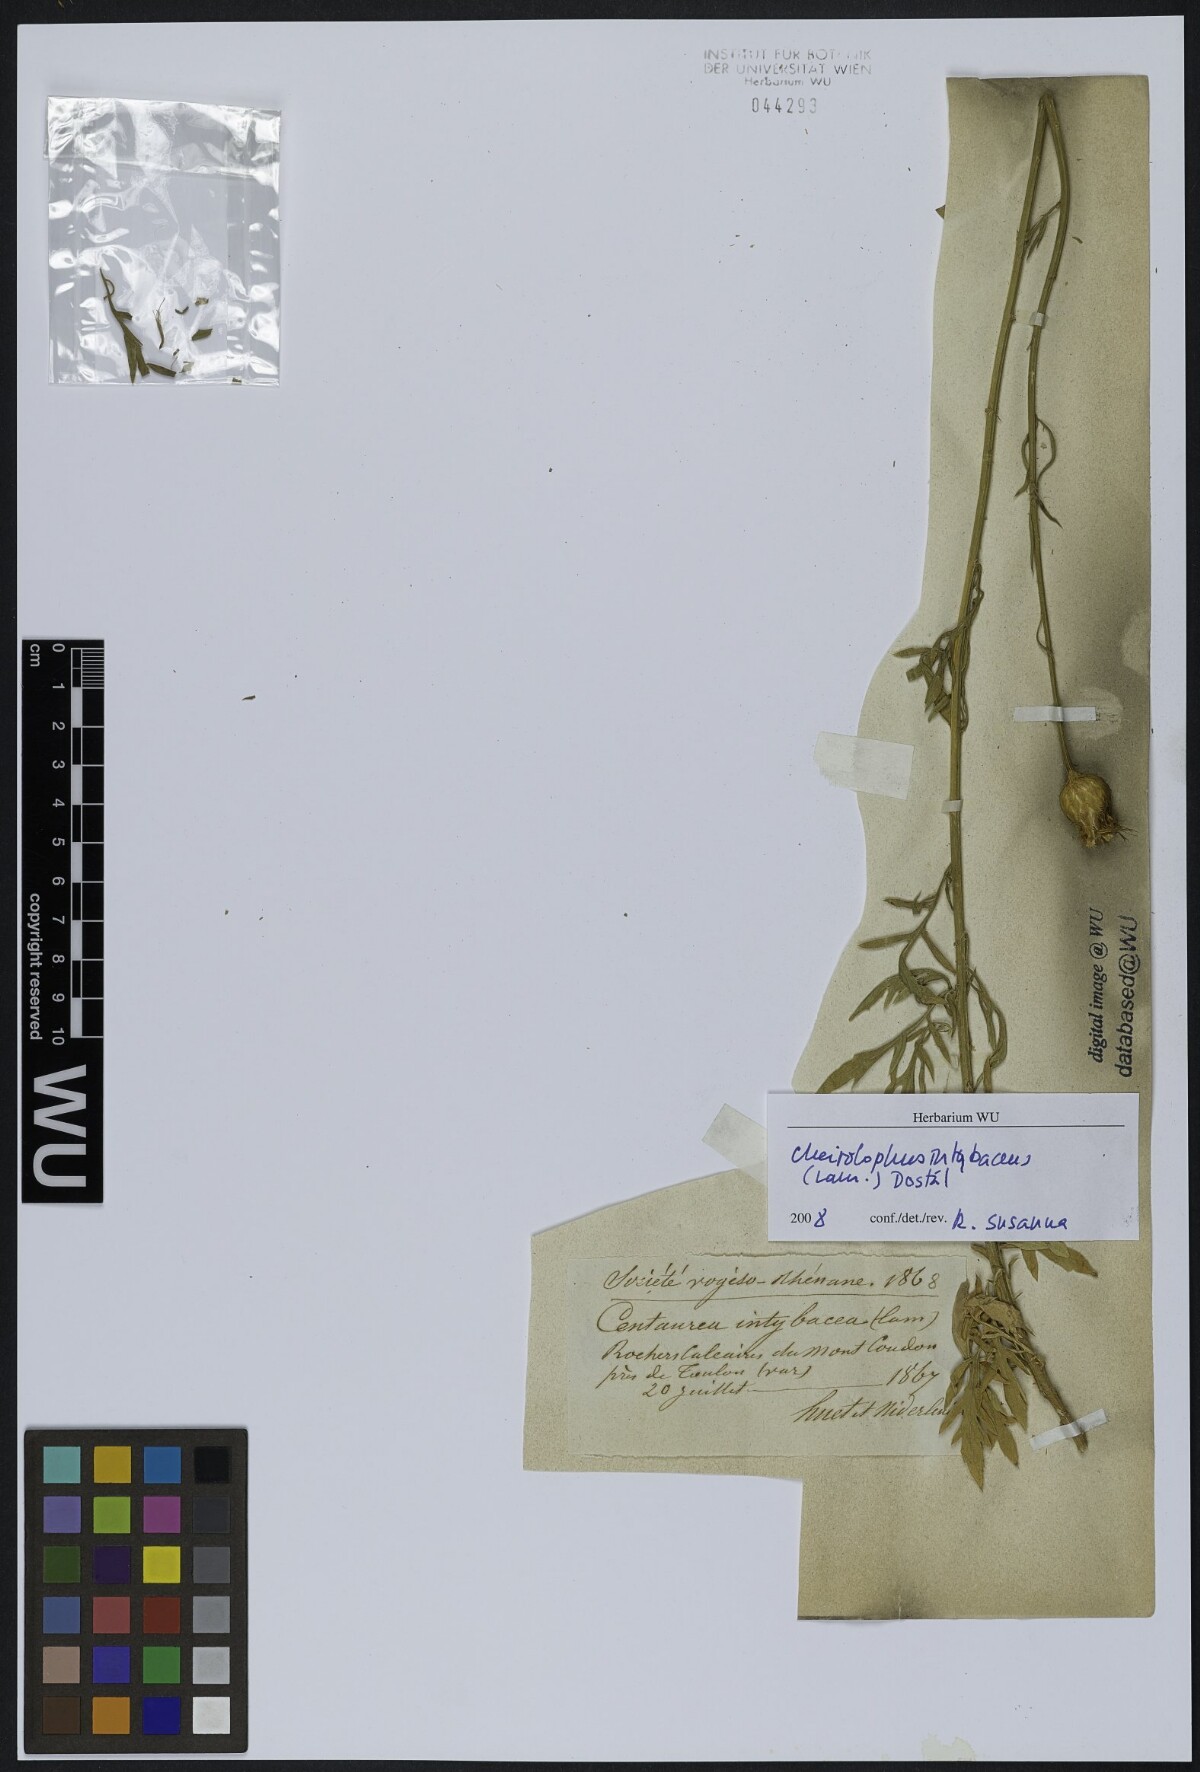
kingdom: Plantae
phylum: Tracheophyta
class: Magnoliopsida
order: Asterales
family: Asteraceae
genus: Cheirolophus
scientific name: Cheirolophus intybaceus
